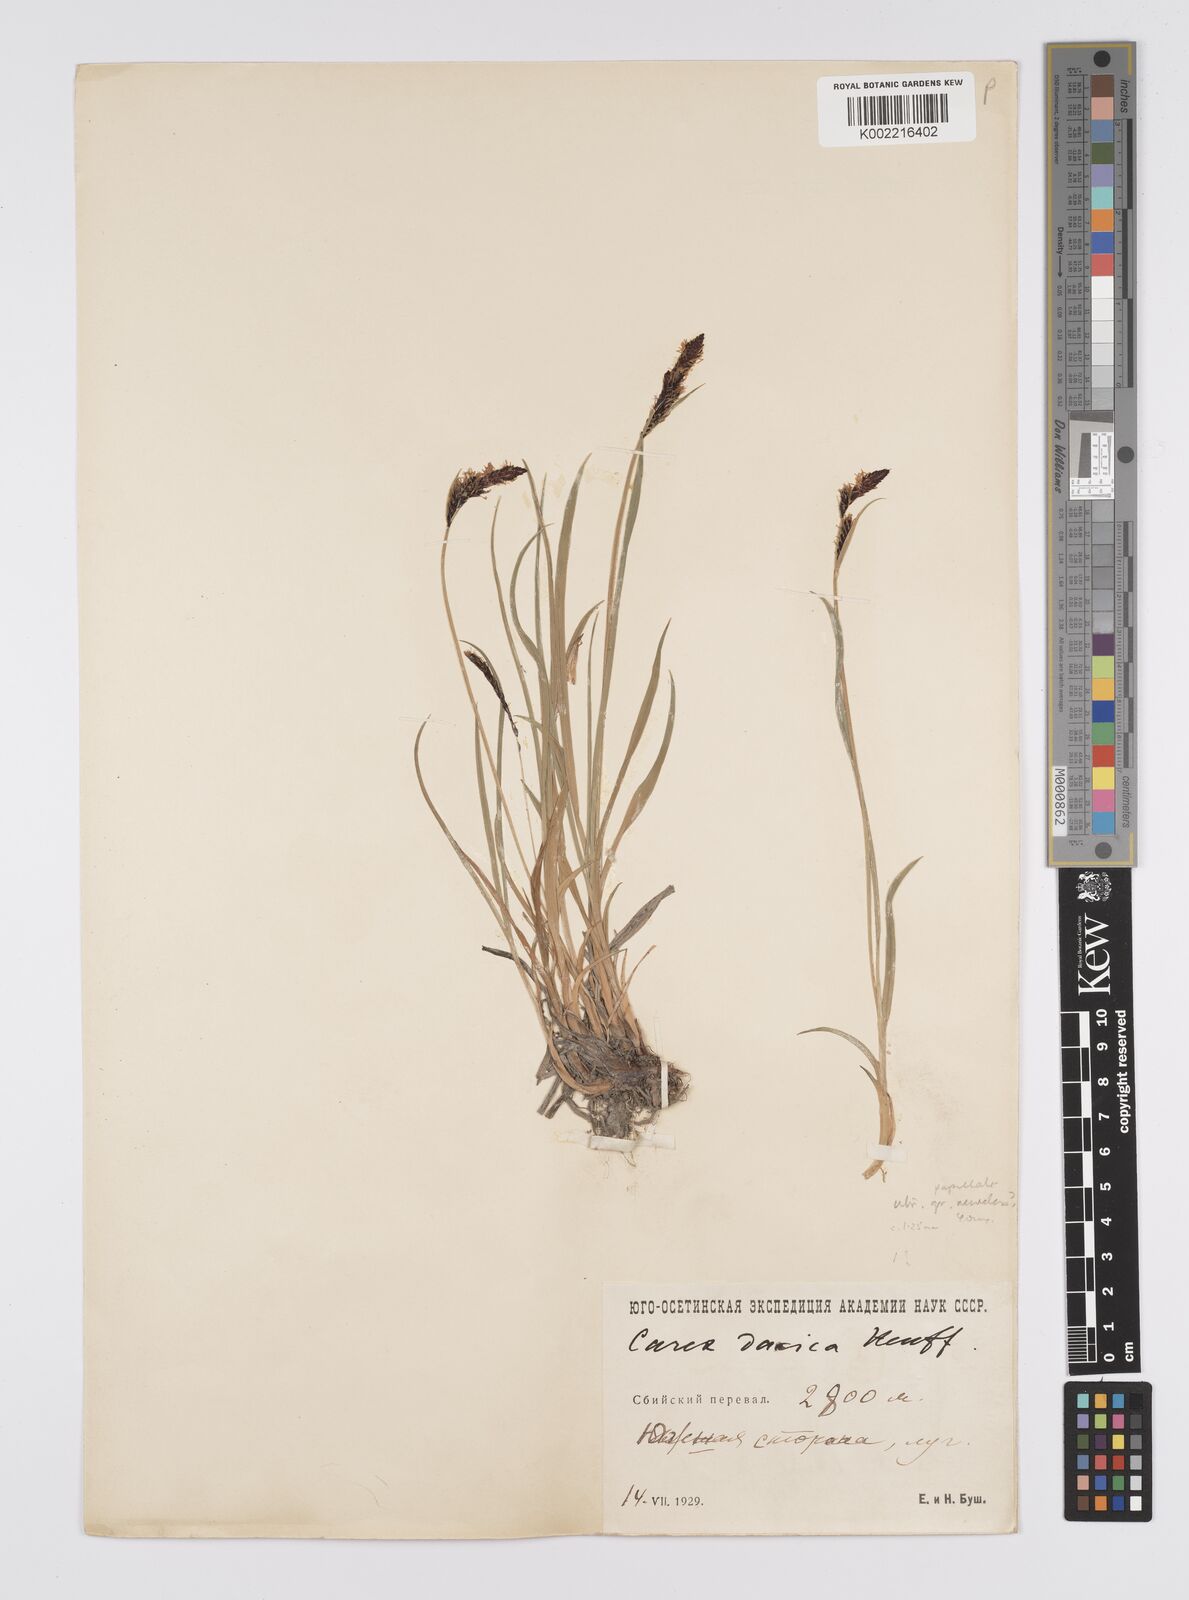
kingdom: Plantae
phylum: Tracheophyta
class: Liliopsida
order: Poales
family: Cyperaceae
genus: Carex
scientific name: Carex parviflora
